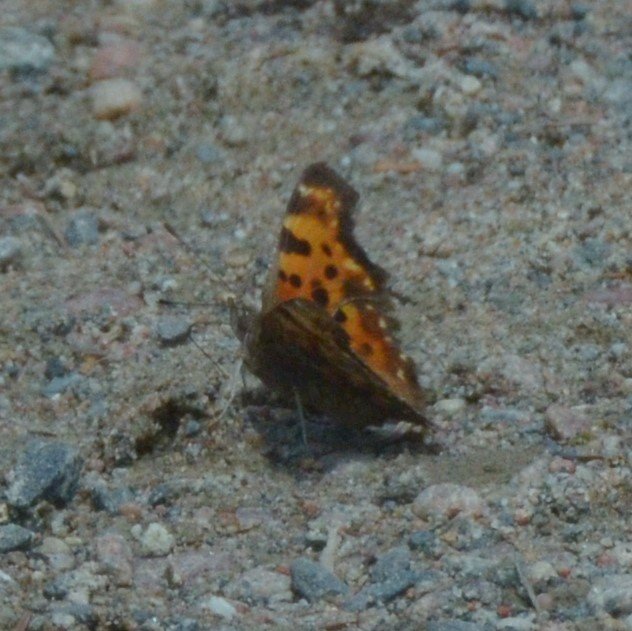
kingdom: Animalia
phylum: Arthropoda
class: Insecta
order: Lepidoptera
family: Nymphalidae
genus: Polygonia
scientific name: Polygonia faunus
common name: Green Comma
